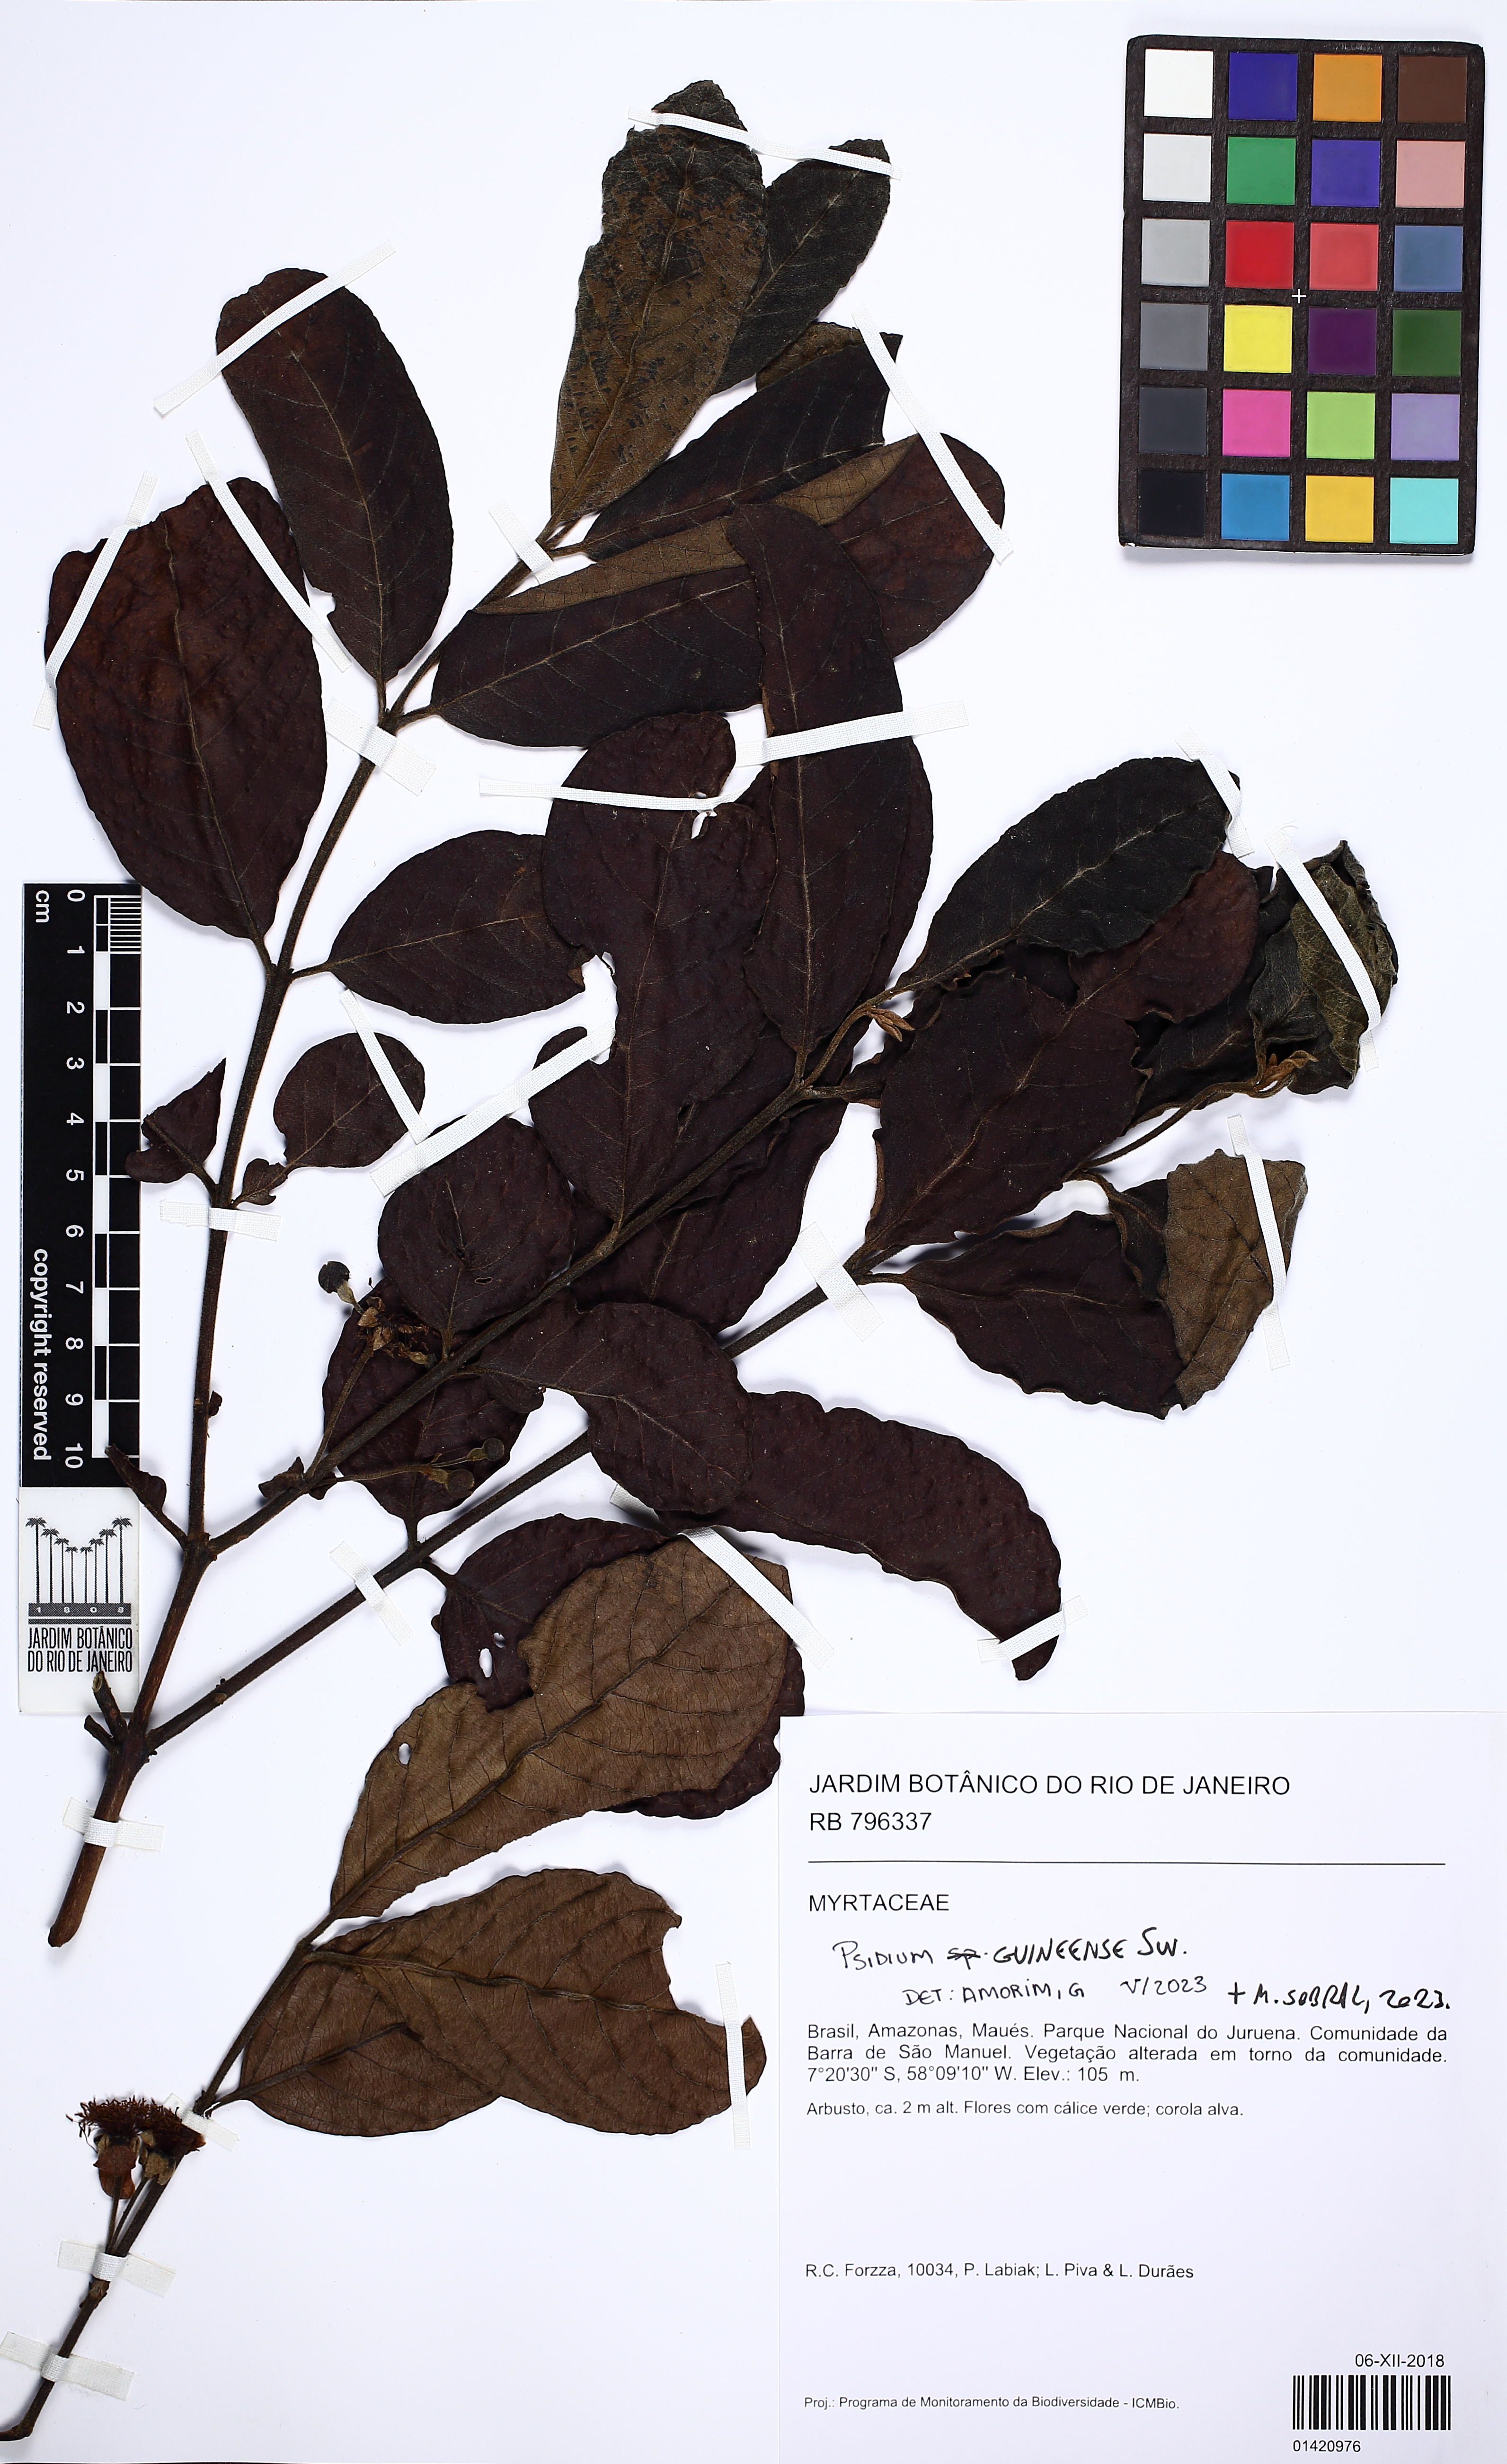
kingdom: Plantae
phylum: Tracheophyta
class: Magnoliopsida
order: Myrtales
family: Myrtaceae
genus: Psidium
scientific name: Psidium guineense
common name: Brazilian guava
